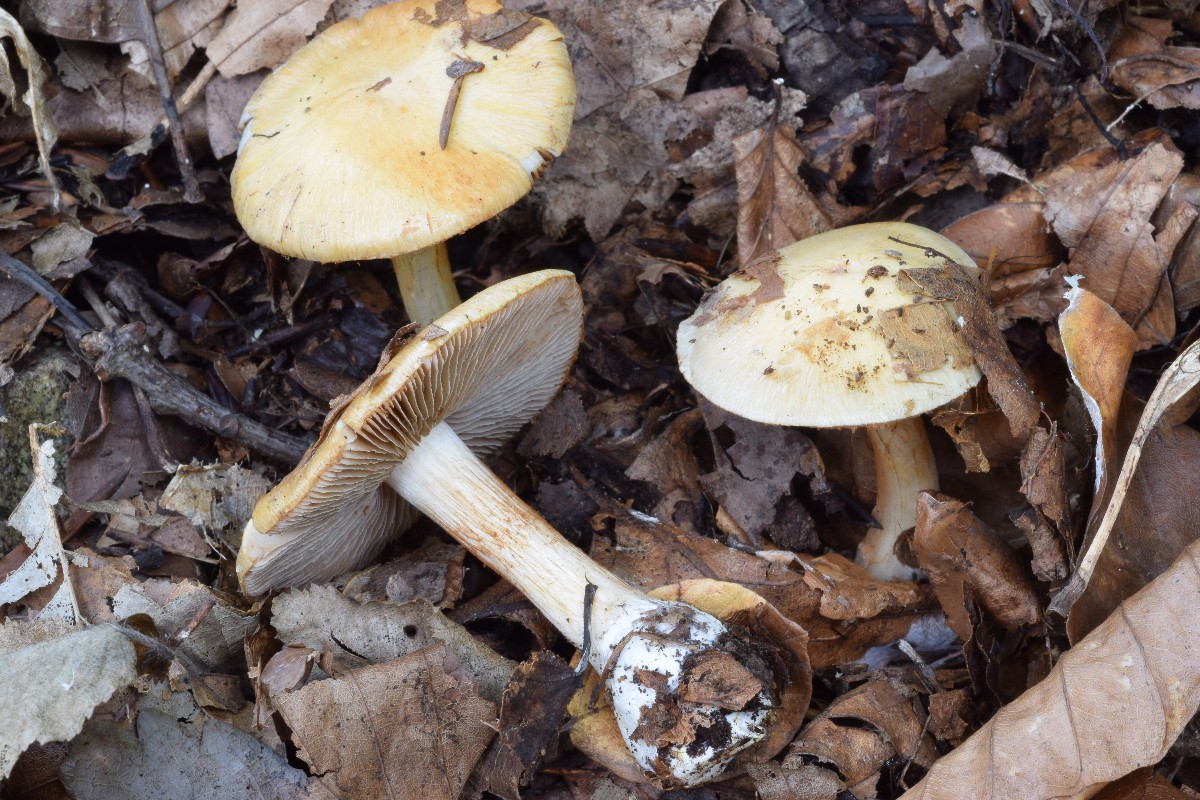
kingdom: Fungi
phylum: Basidiomycota
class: Agaricomycetes
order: Agaricales
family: Cortinariaceae
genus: Cortinarius
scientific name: Cortinarius gracilior
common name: gracil slørhat
